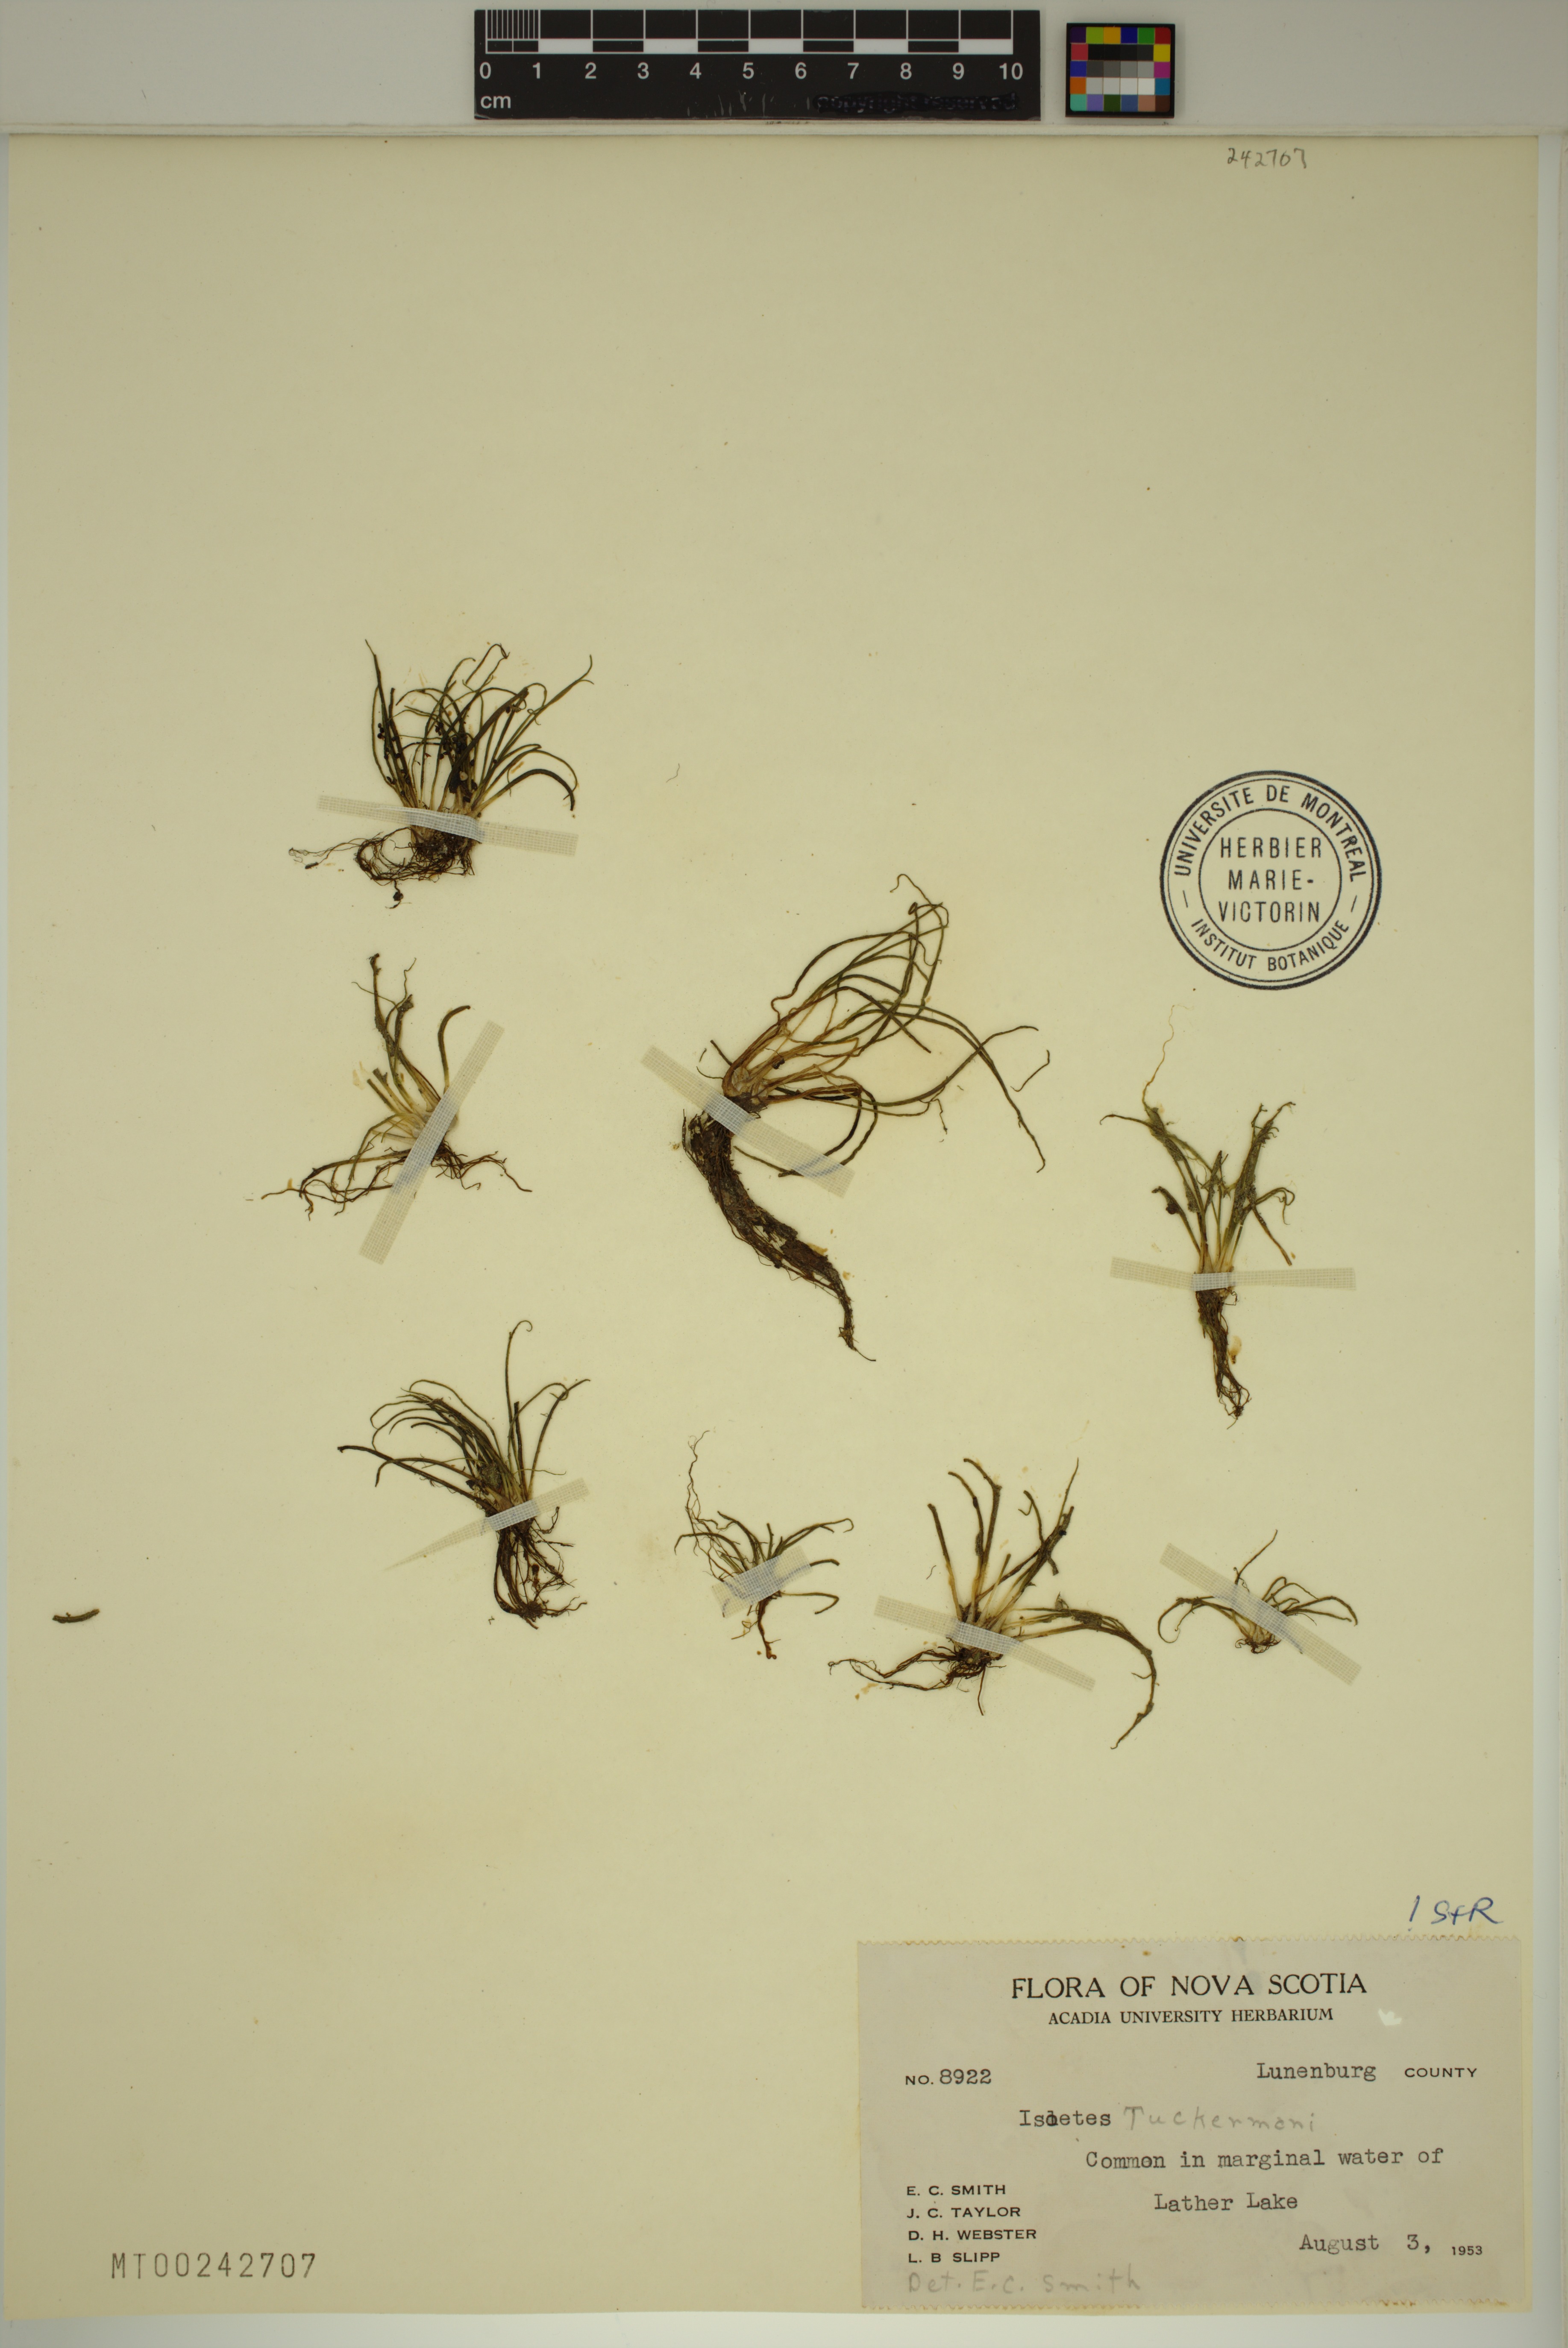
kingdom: Plantae
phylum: Tracheophyta
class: Lycopodiopsida
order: Isoetales
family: Isoetaceae
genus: Isoetes
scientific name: Isoetes tuckermanii
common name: Tuckerman's quillwort
